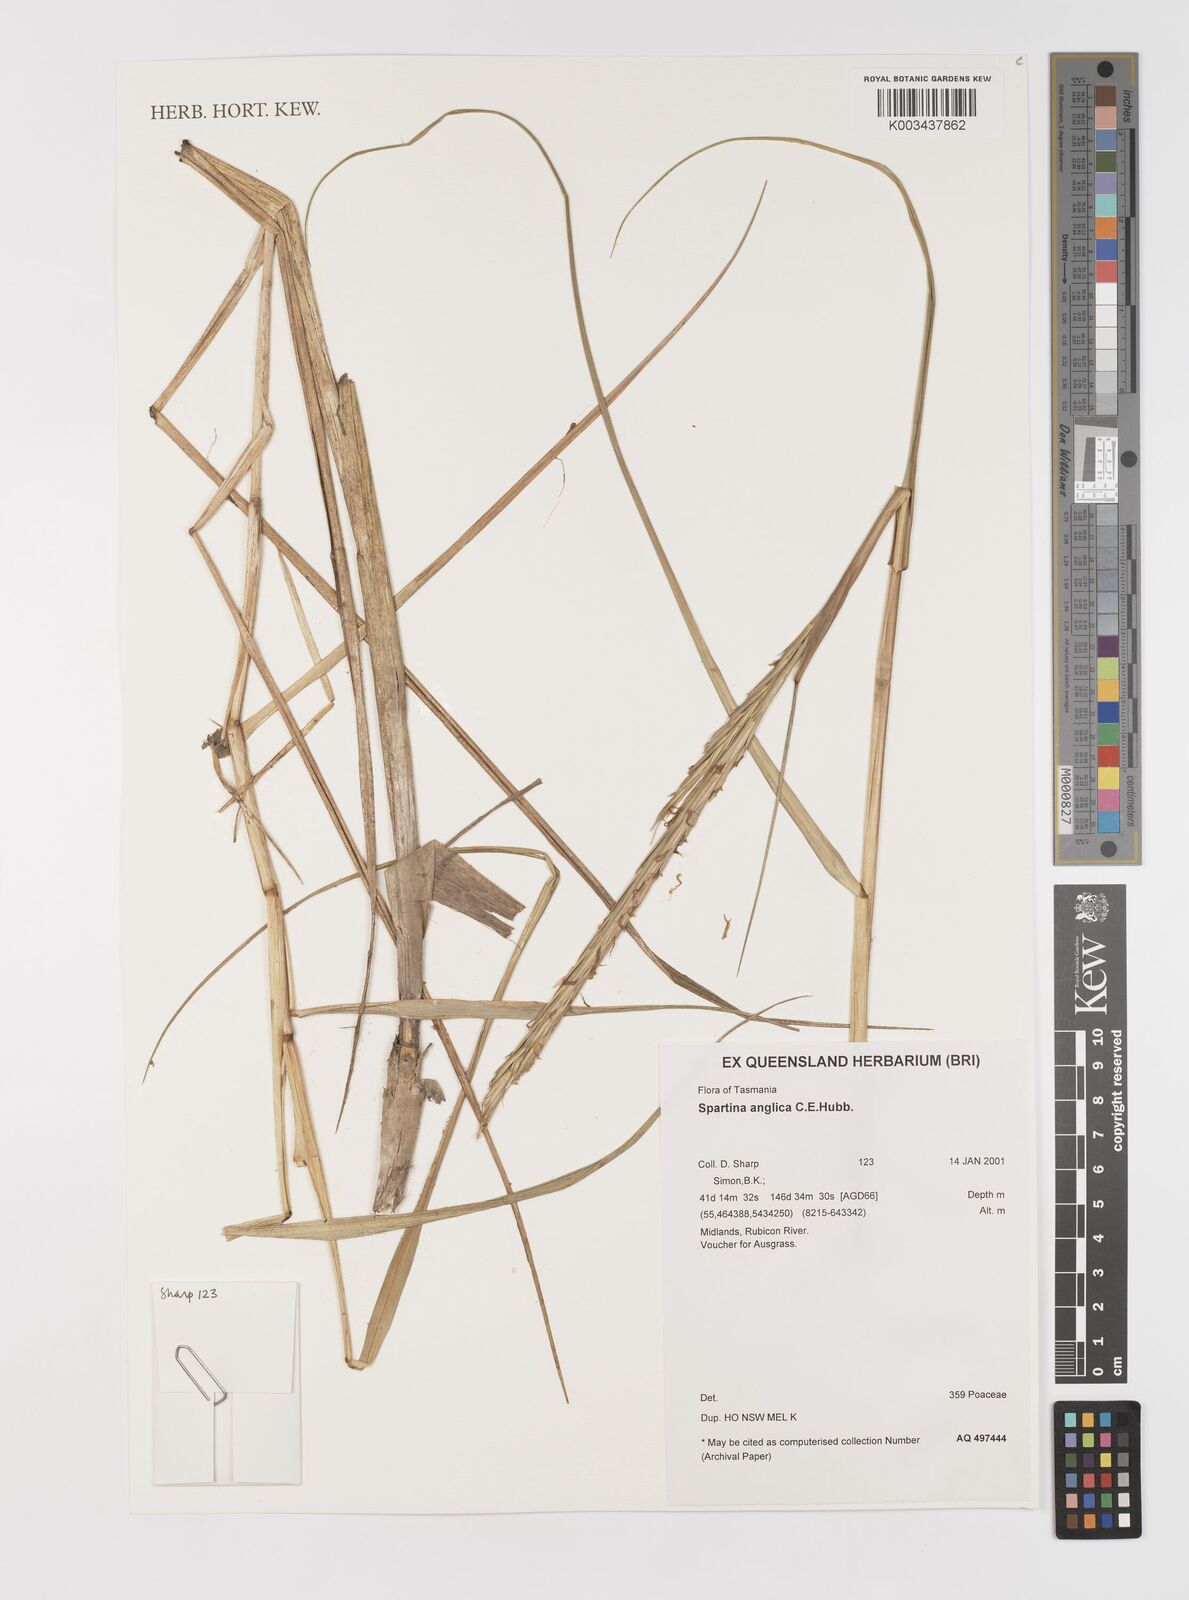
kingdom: Plantae
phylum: Tracheophyta
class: Liliopsida
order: Poales
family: Poaceae
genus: Sporobolus
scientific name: Sporobolus anglicus
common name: English cordgrass
